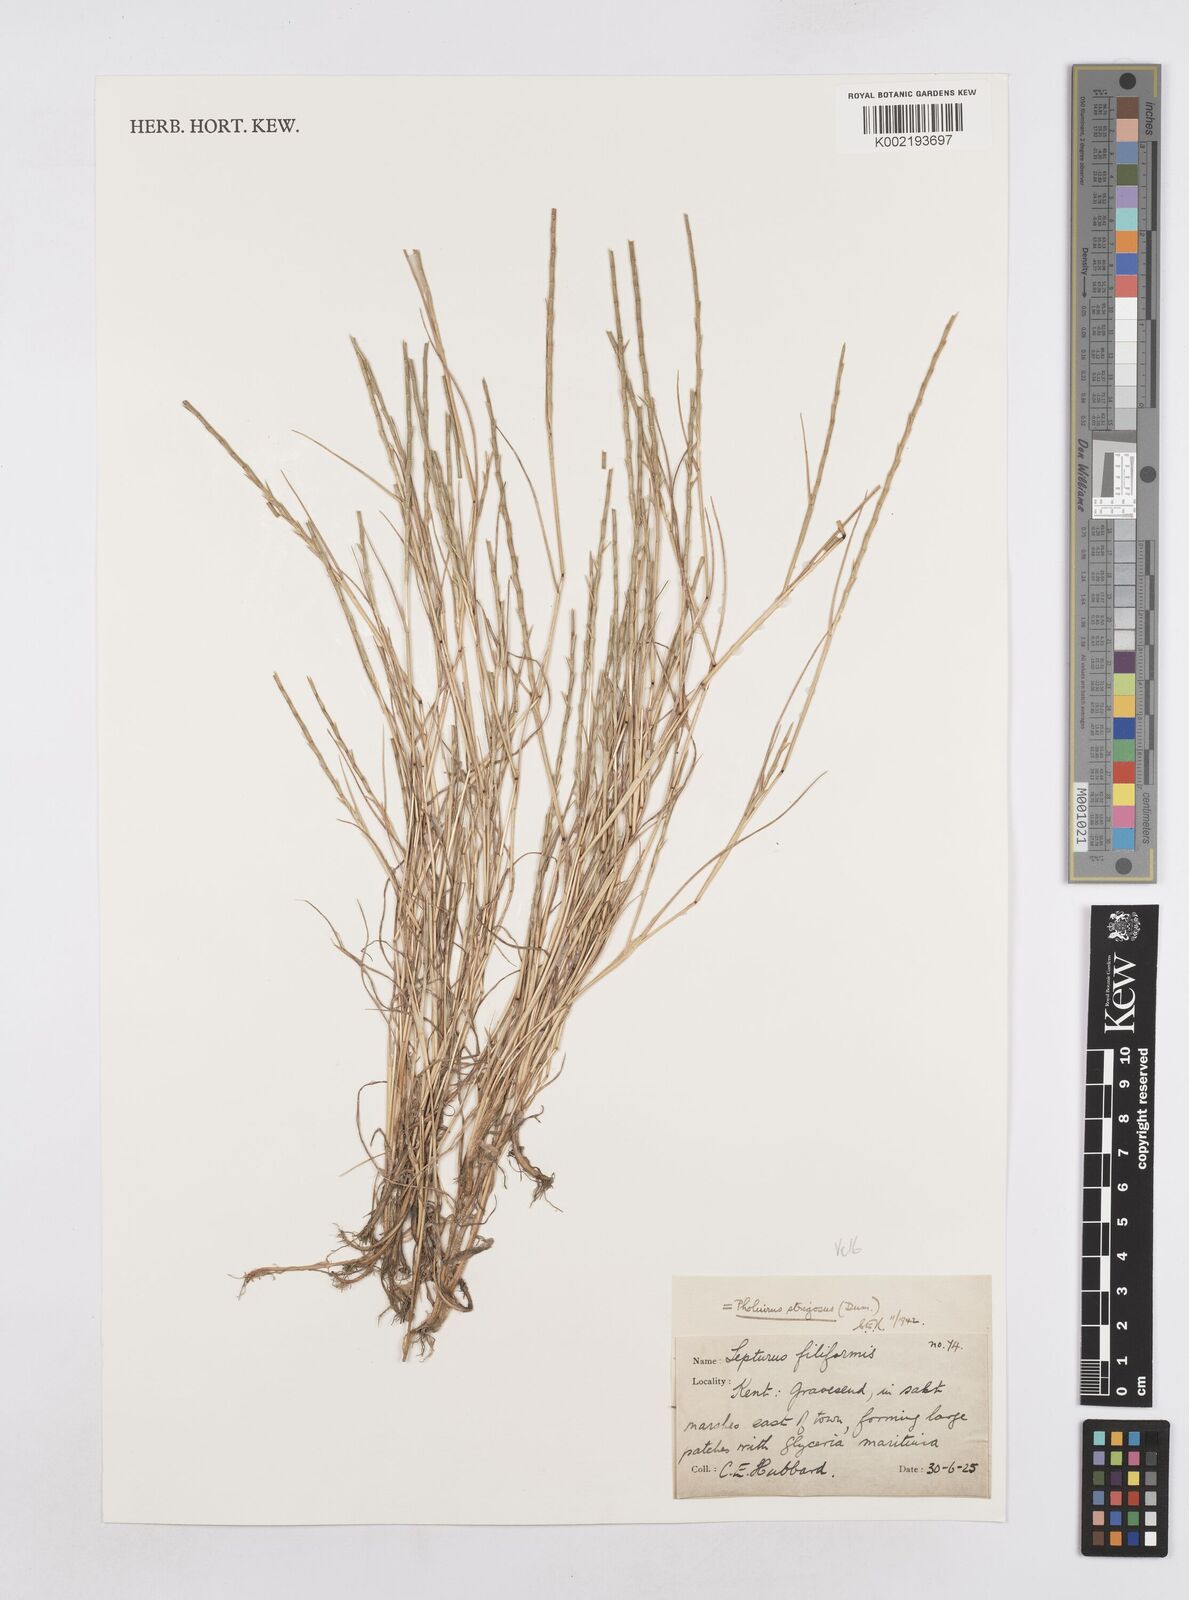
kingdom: Plantae
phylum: Tracheophyta
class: Liliopsida
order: Poales
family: Poaceae
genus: Parapholis
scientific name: Parapholis strigosa
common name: Hard-grass
